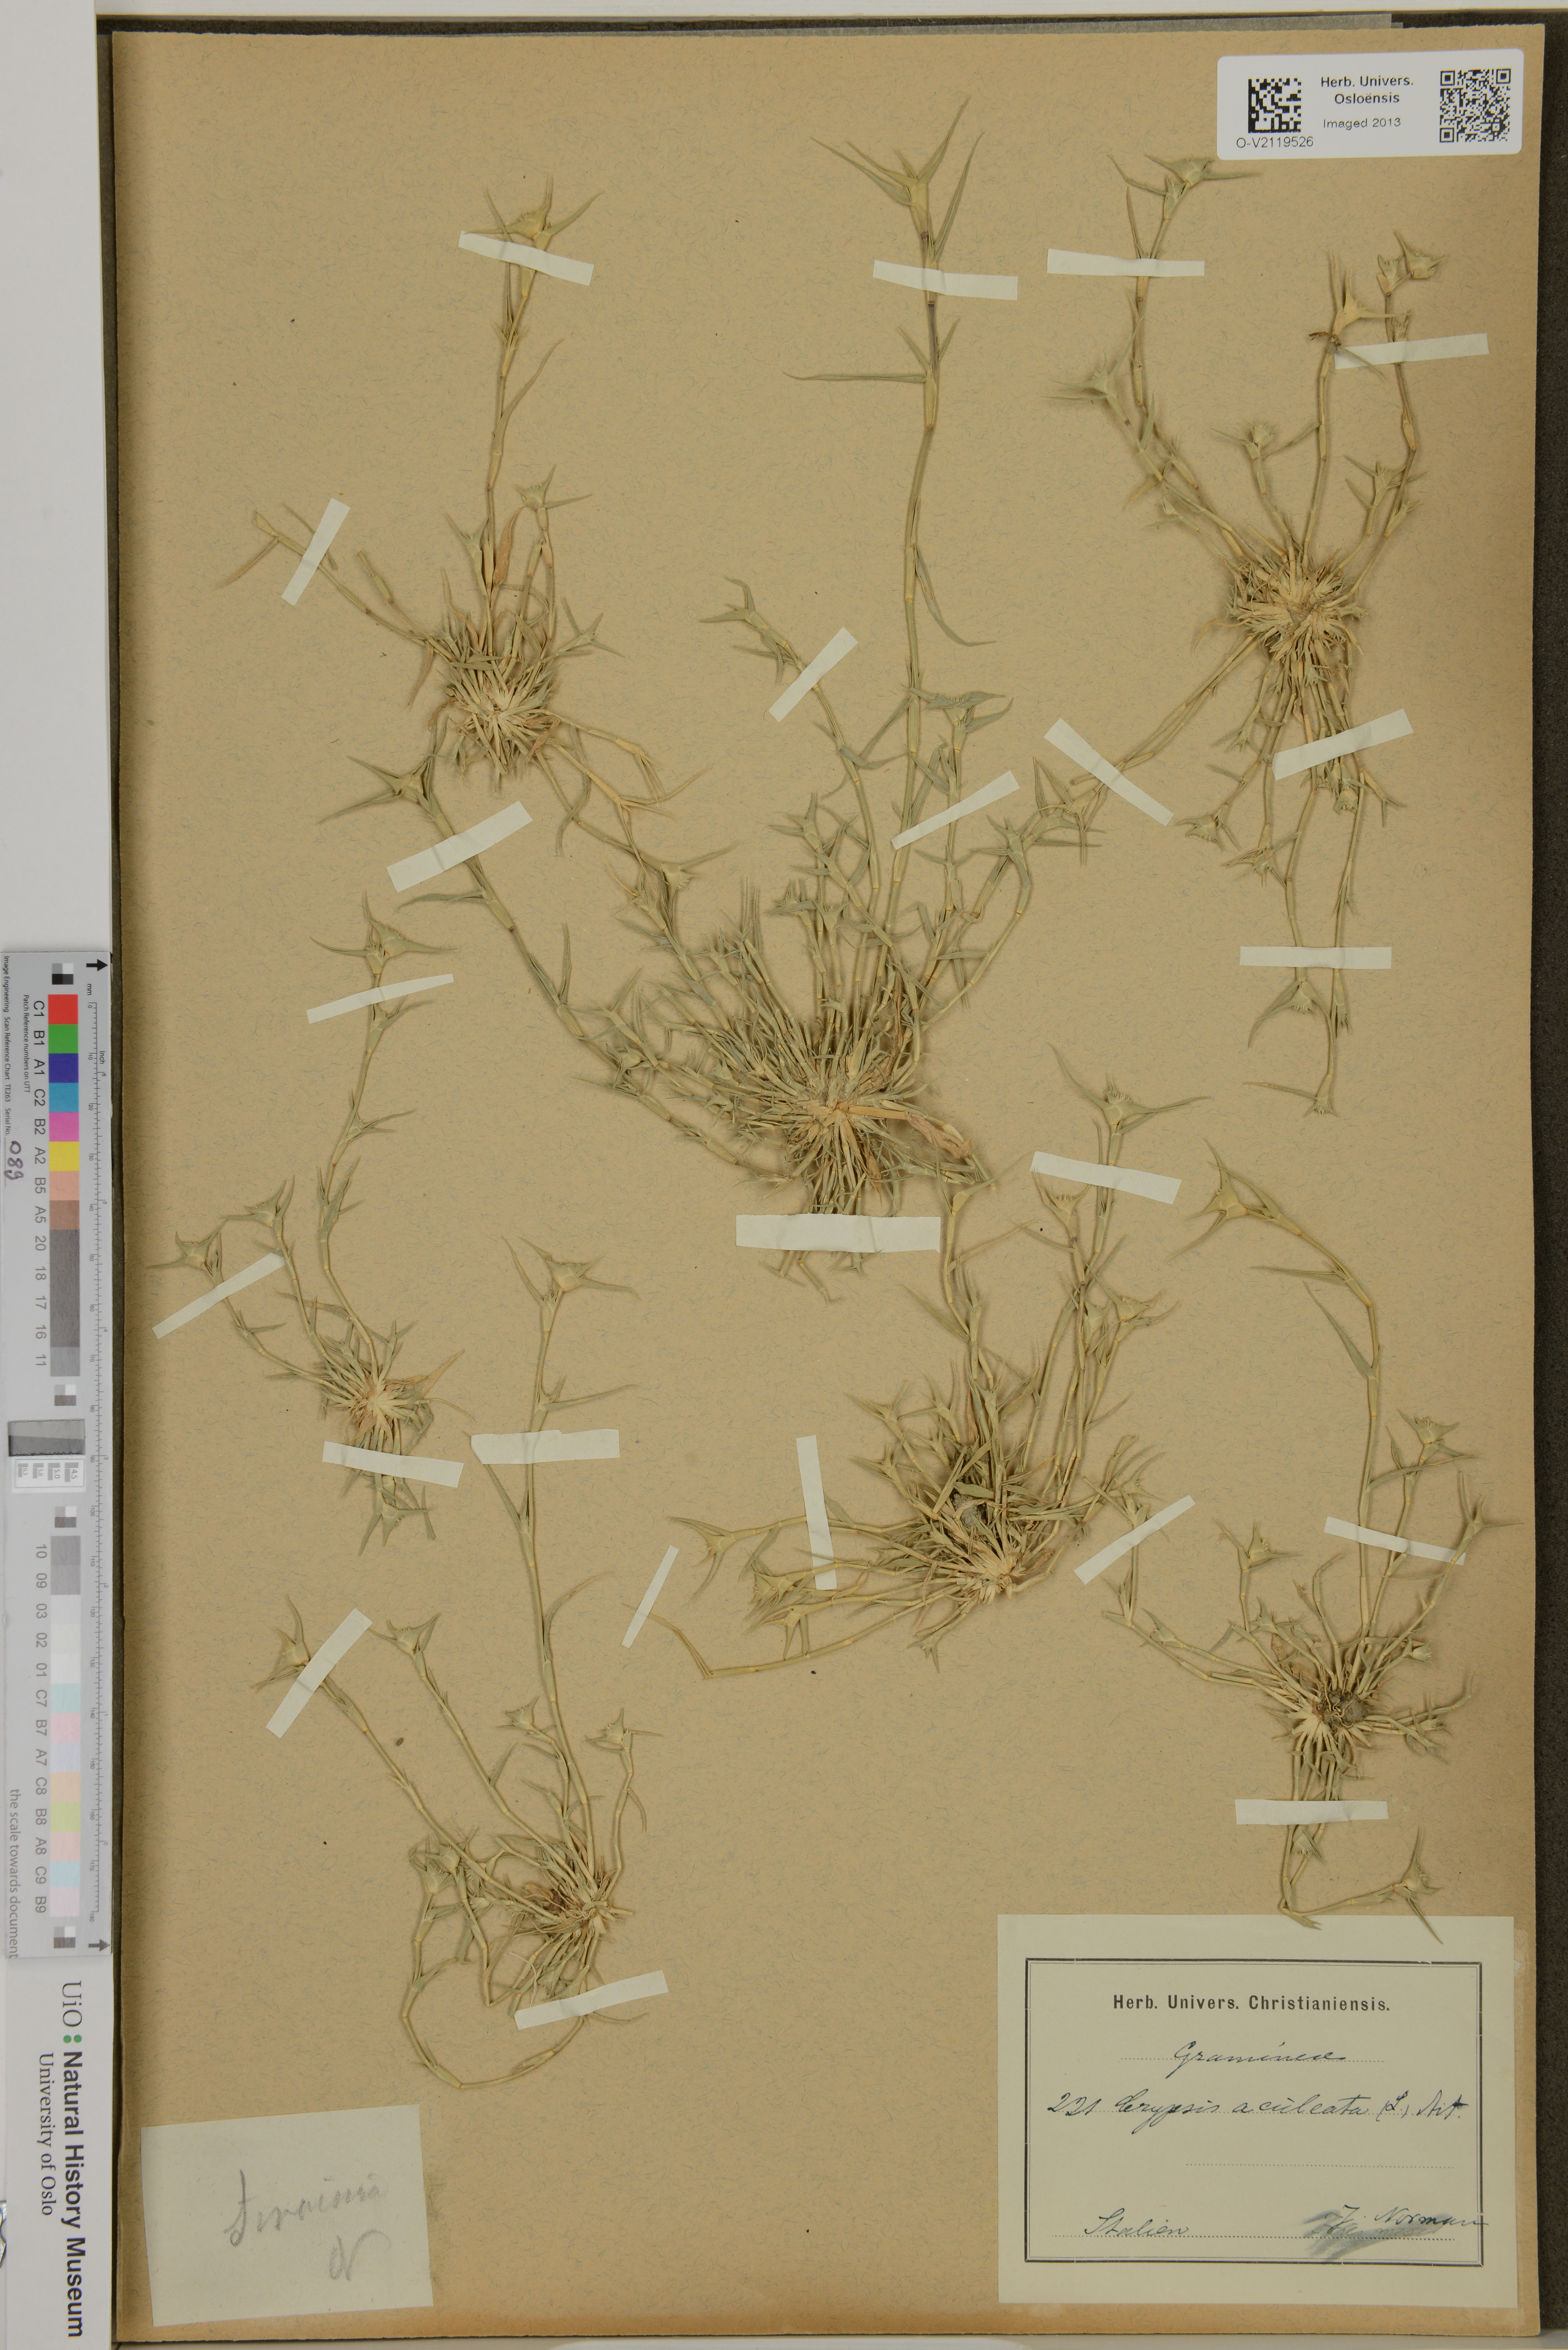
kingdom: Plantae
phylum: Tracheophyta
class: Liliopsida
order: Poales
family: Poaceae
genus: Sporobolus
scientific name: Sporobolus aculeatus
